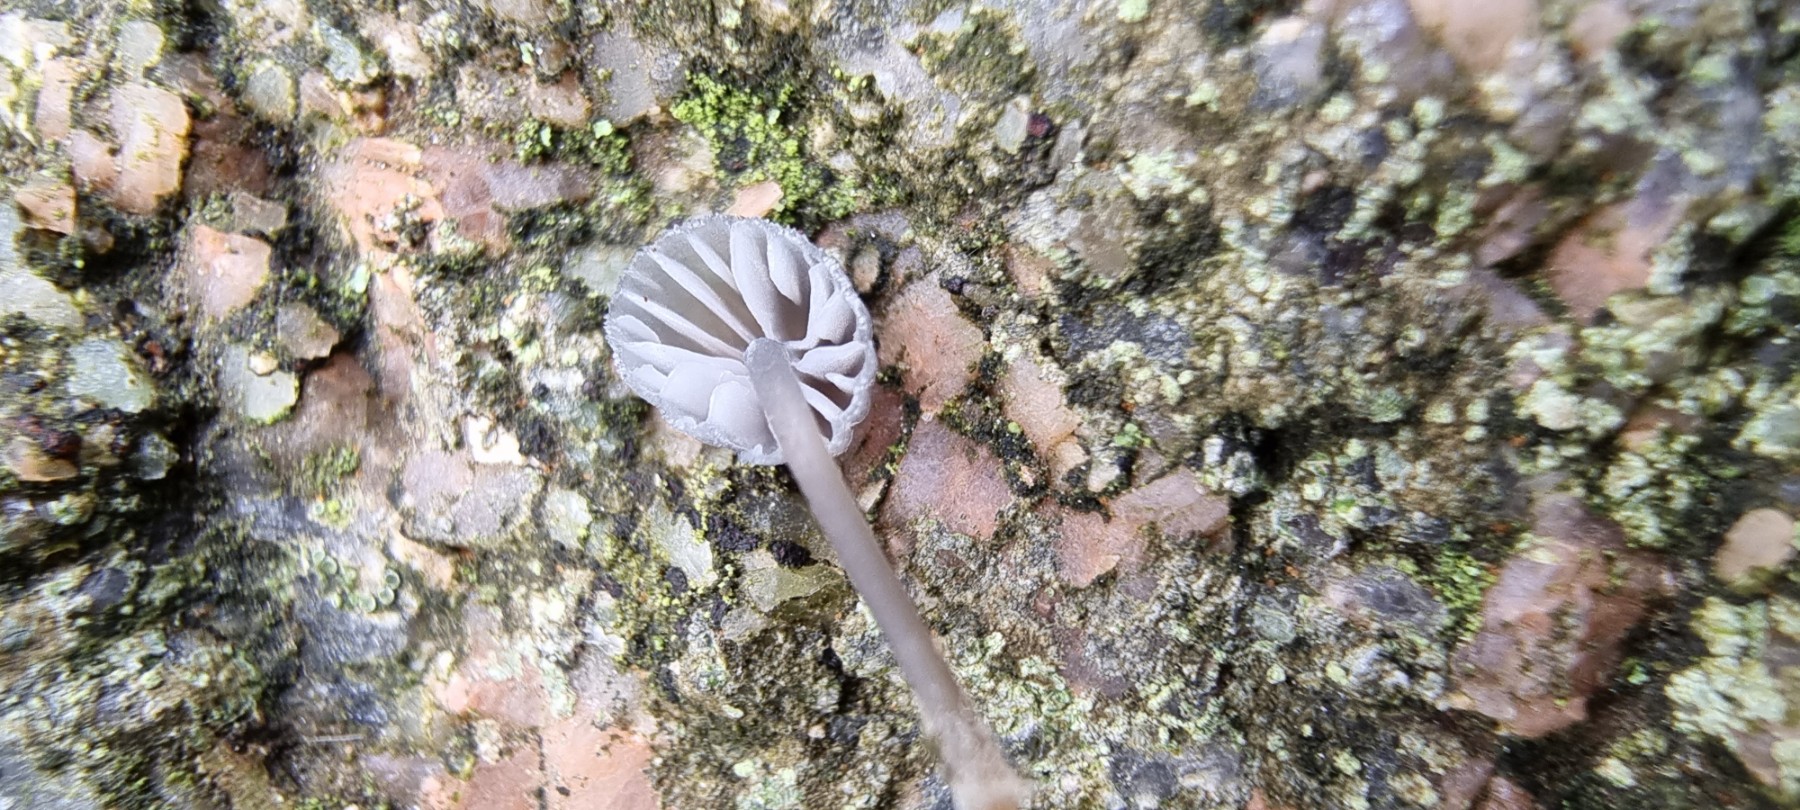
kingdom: Fungi
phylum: Basidiomycota
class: Agaricomycetes
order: Agaricales
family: Mycenaceae
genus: Mycena
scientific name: Mycena pseudocorticola
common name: gråblå bark-huesvamp
